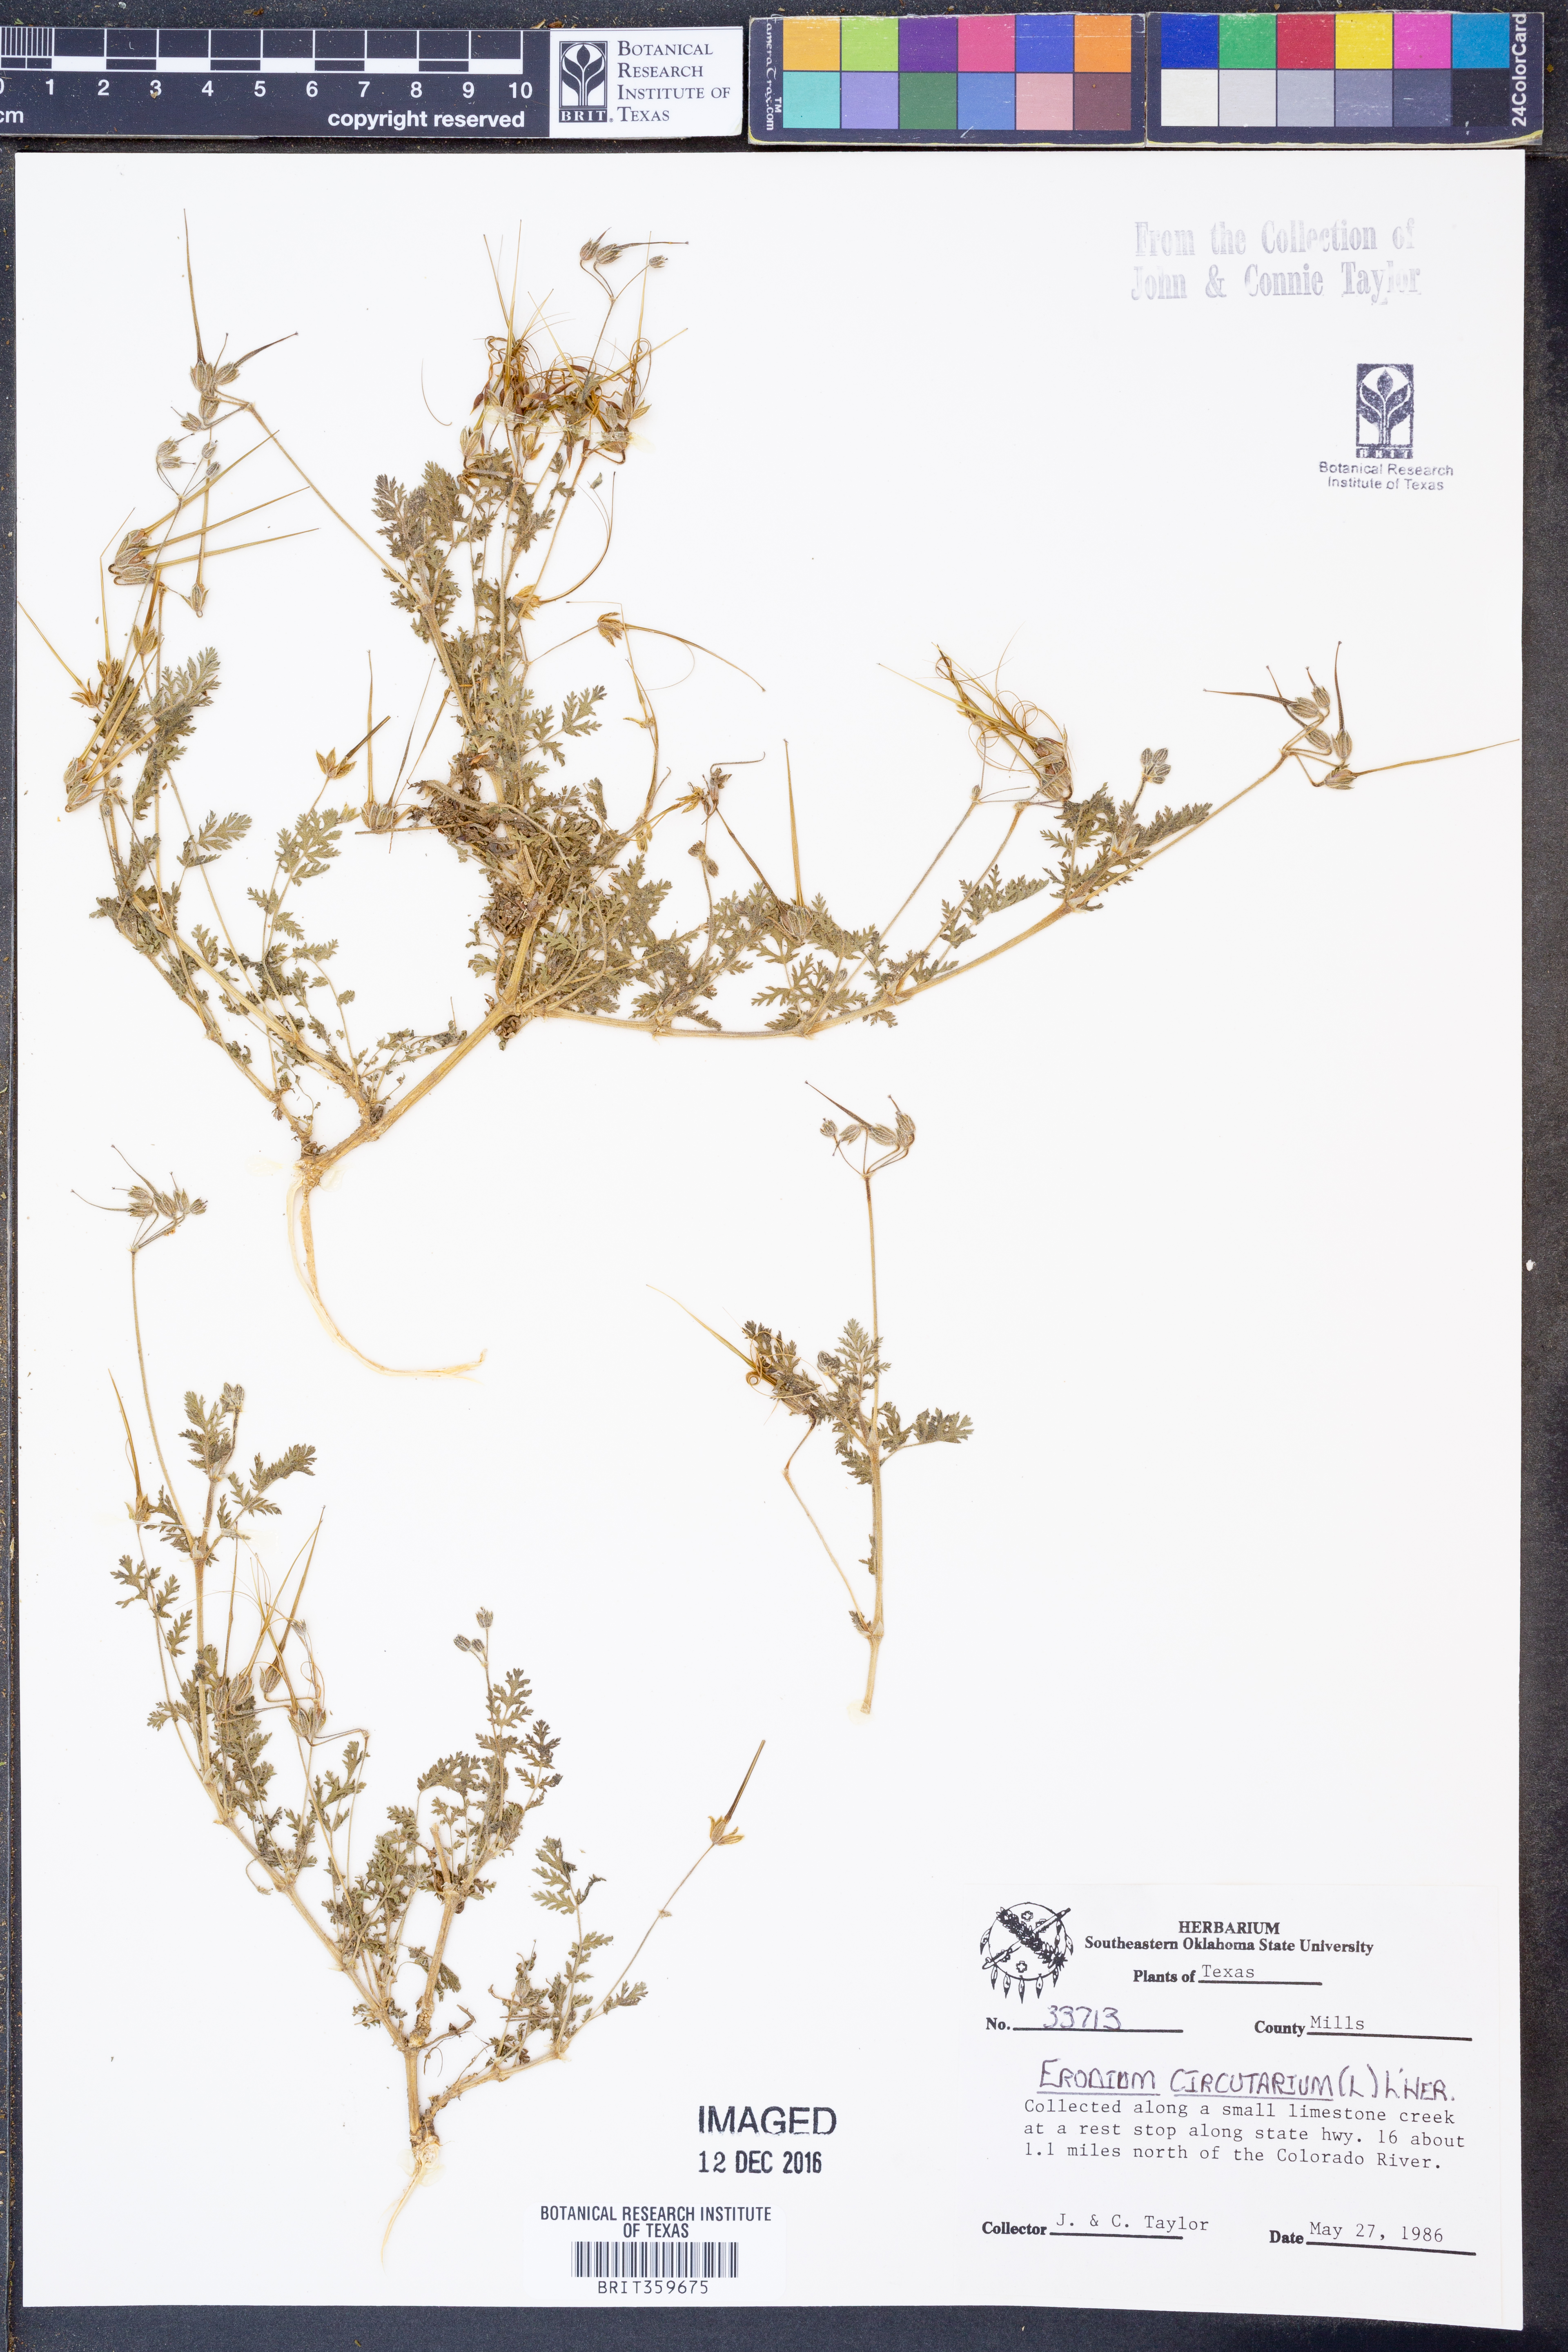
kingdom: Plantae
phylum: Tracheophyta
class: Magnoliopsida
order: Geraniales
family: Geraniaceae
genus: Erodium
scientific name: Erodium cicutarium
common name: Common stork's-bill
